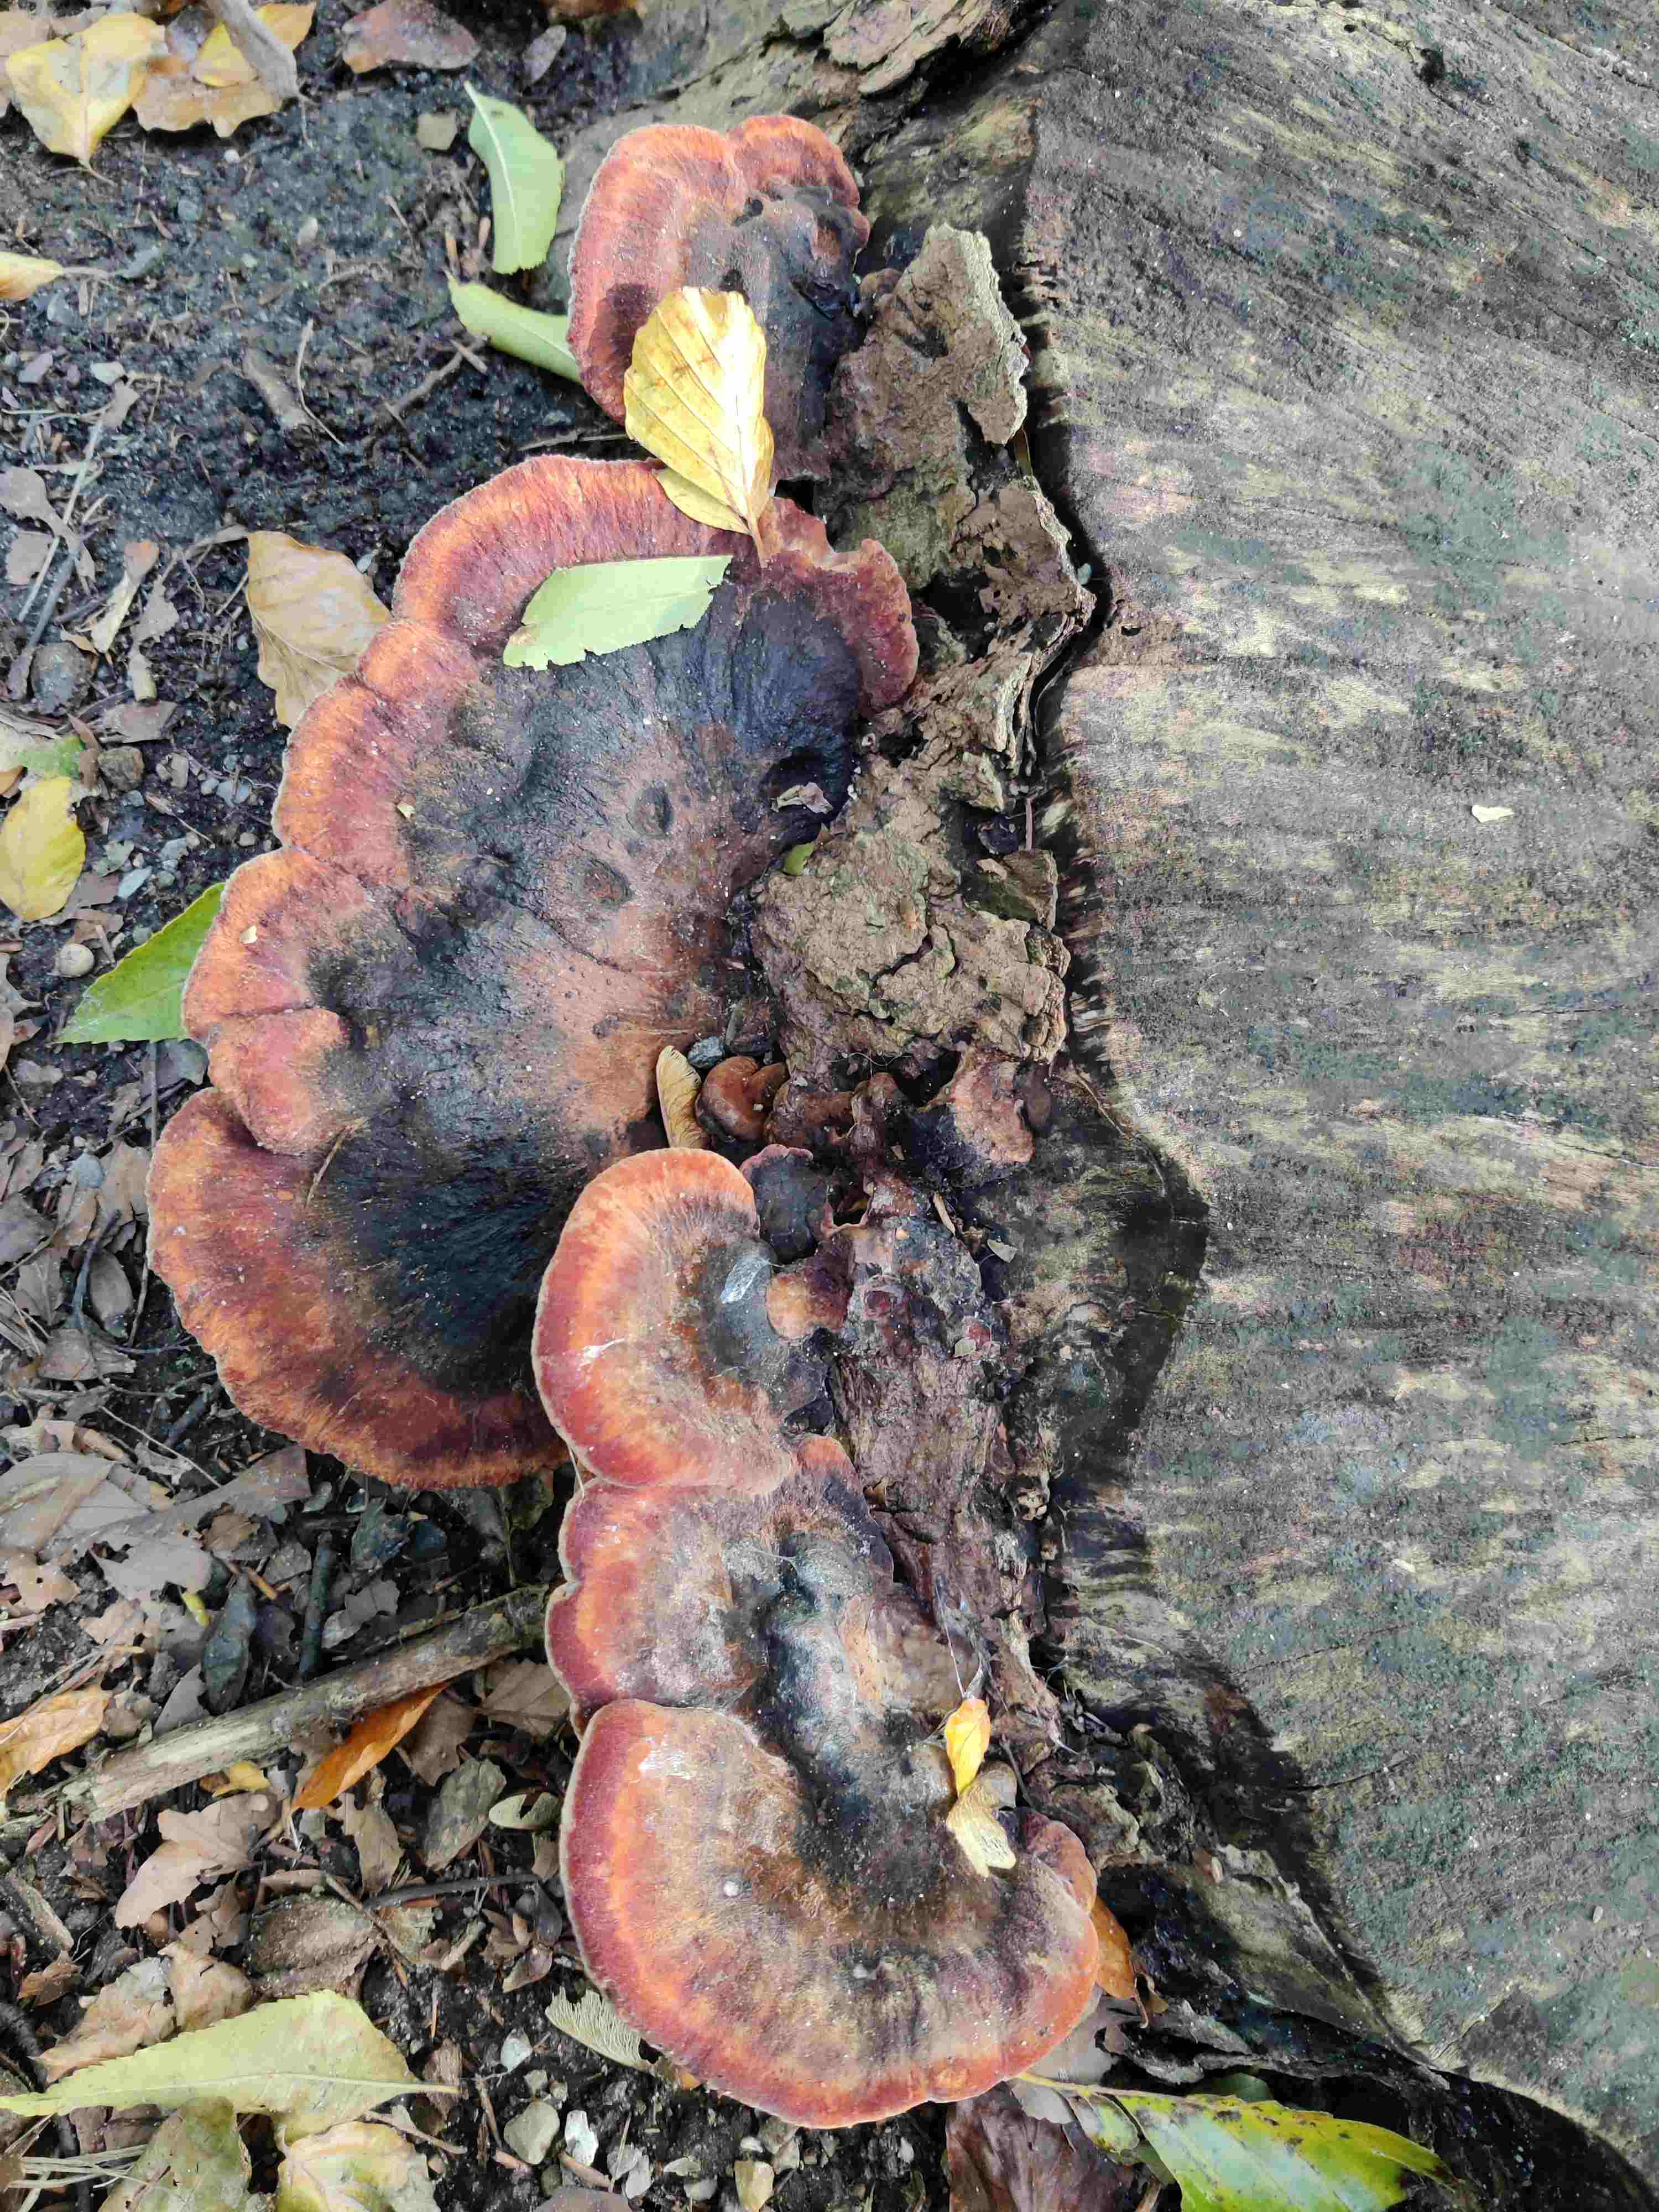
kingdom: Fungi
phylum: Basidiomycota
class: Agaricomycetes
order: Polyporales
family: Ischnodermataceae
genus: Ischnoderma
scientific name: Ischnoderma resinosum
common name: løv-tjæreporesvamp
